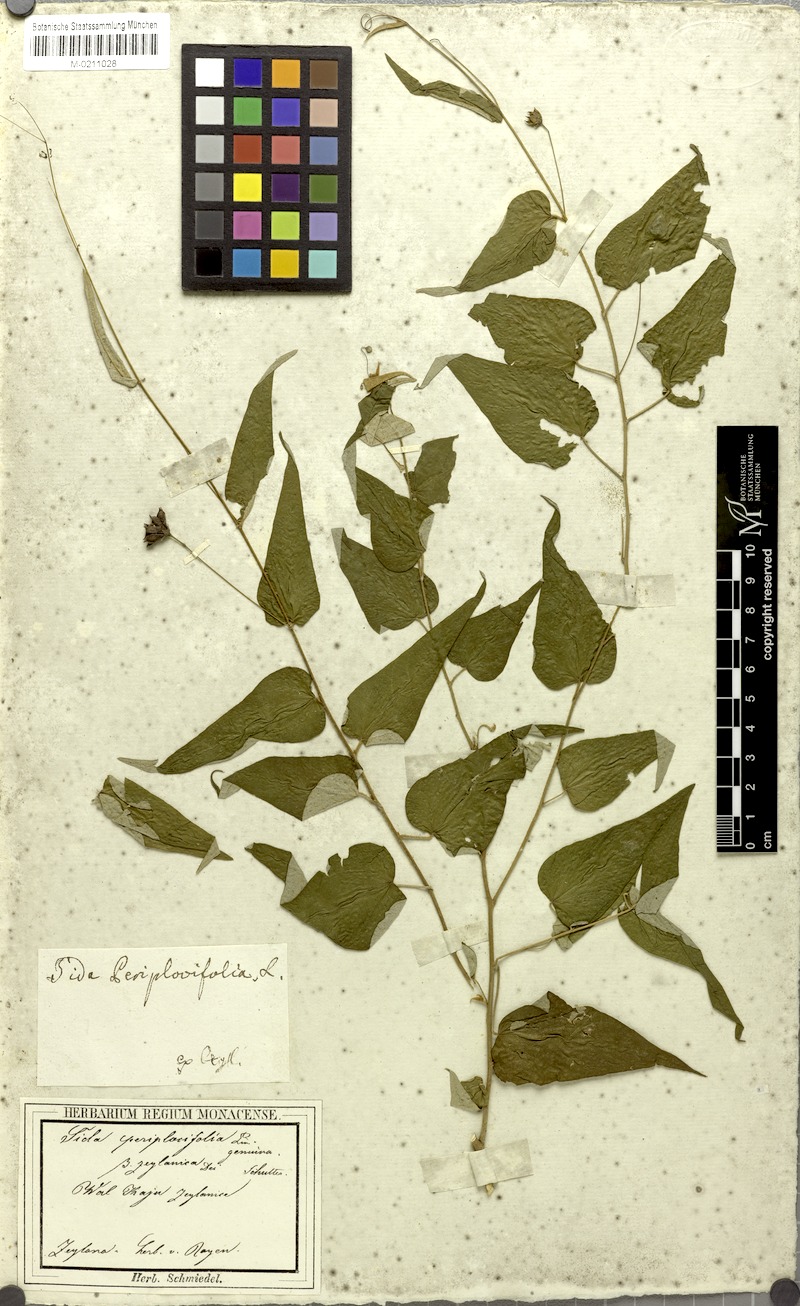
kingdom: Plantae
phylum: Tracheophyta
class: Magnoliopsida
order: Malvales
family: Malvaceae
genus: Wissadula
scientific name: Wissadula periplocifolia
